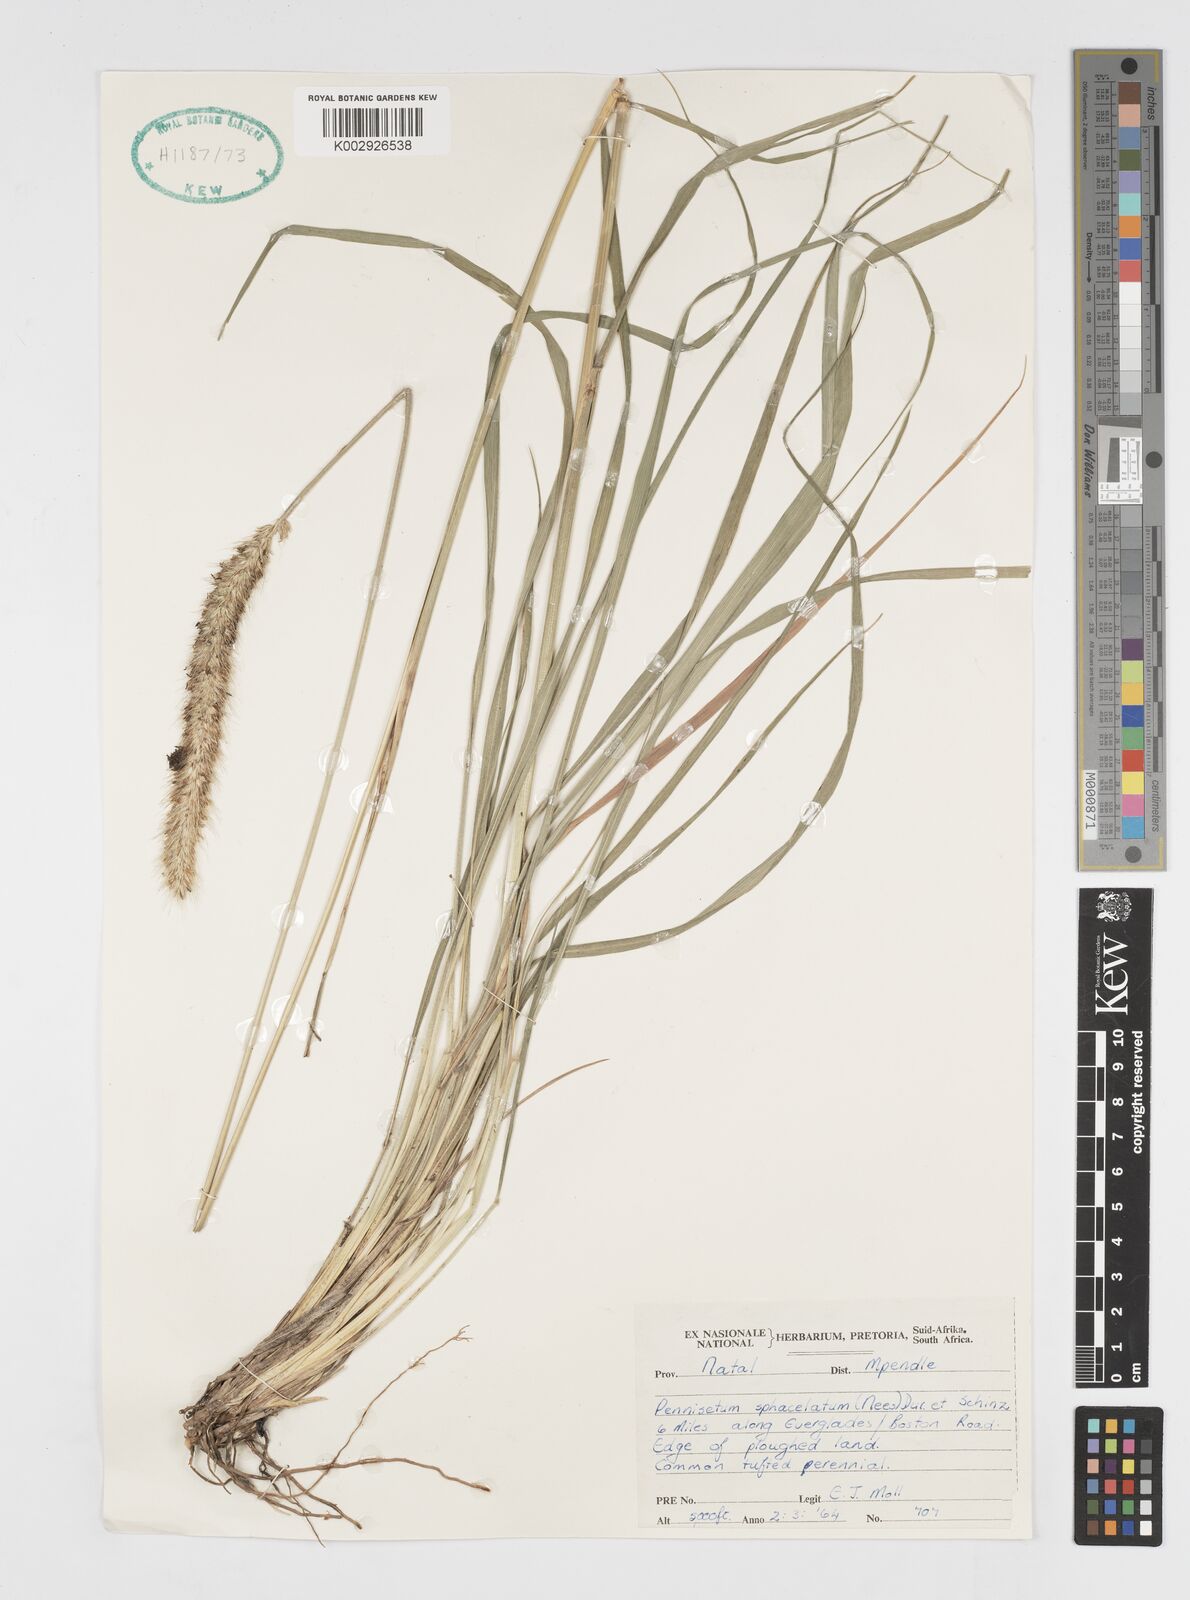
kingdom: Plantae
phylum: Tracheophyta
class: Liliopsida
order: Poales
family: Poaceae
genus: Cenchrus
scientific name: Cenchrus sphacelatus
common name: Bulgras
